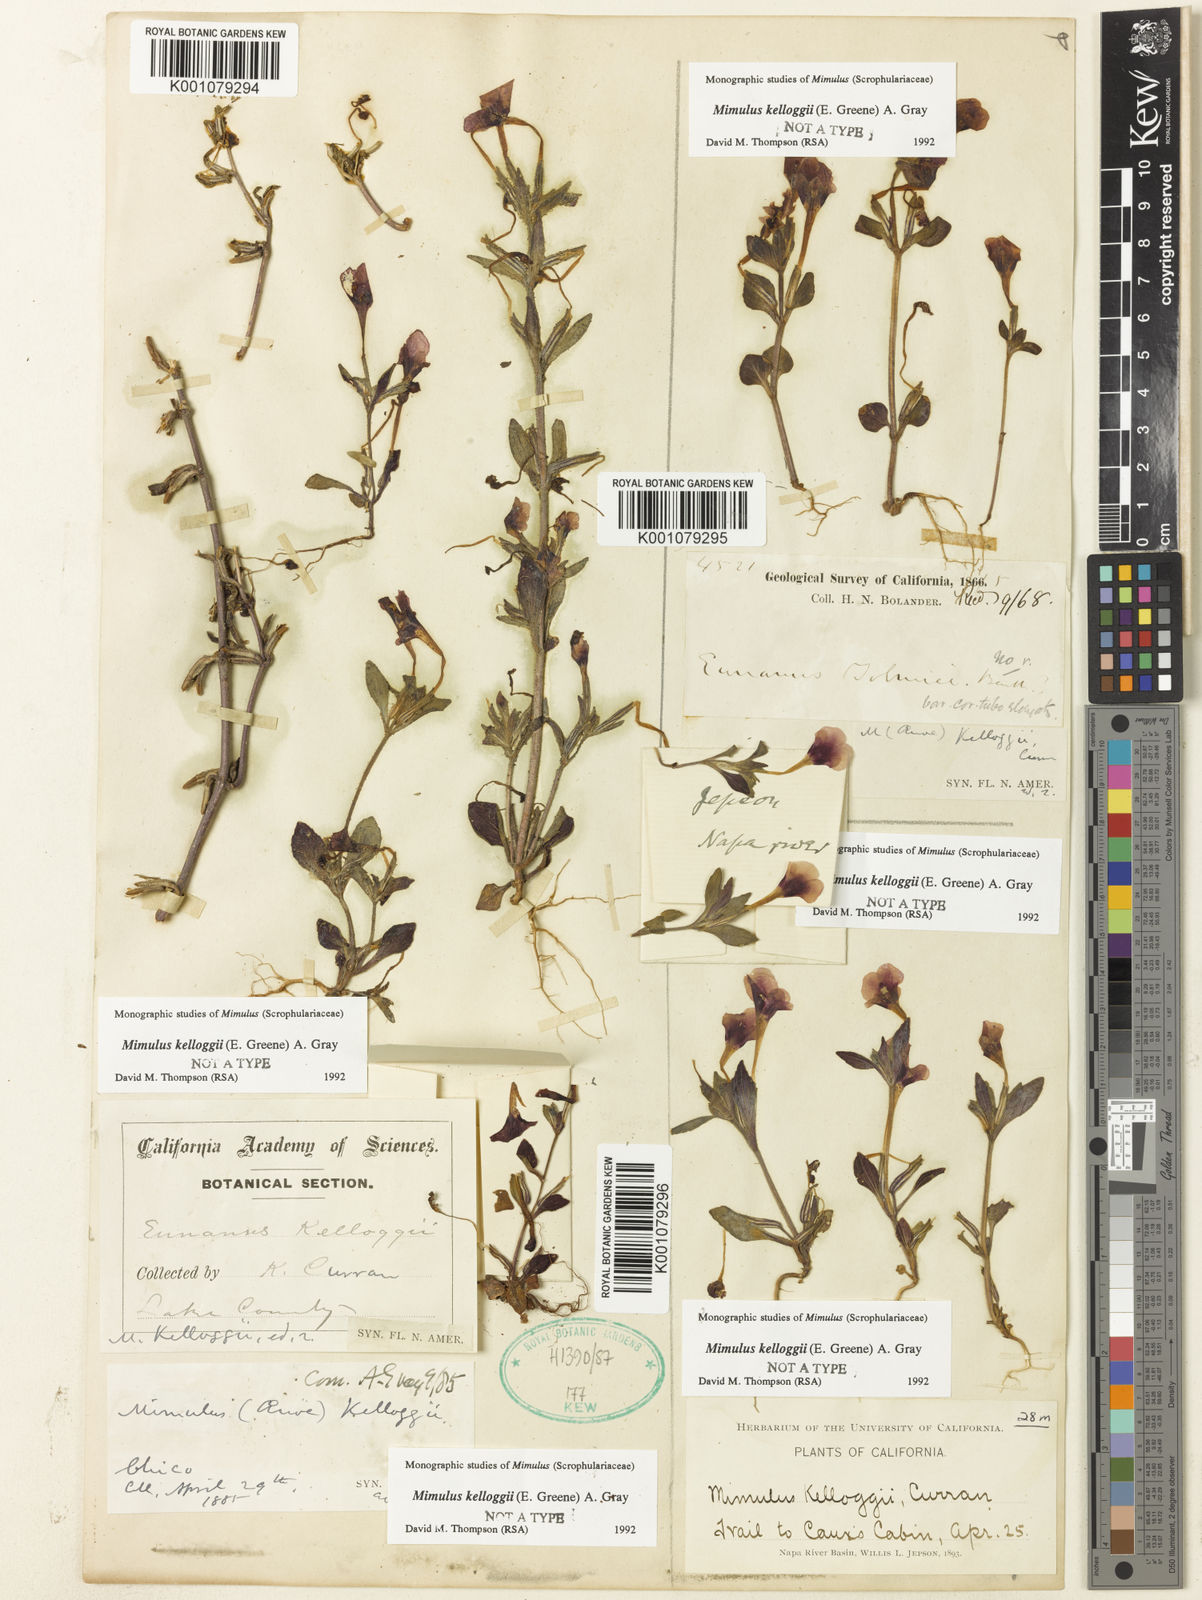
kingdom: Plantae
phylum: Tracheophyta
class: Magnoliopsida
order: Lamiales
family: Phrymaceae
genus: Mimulus
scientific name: Mimulus
